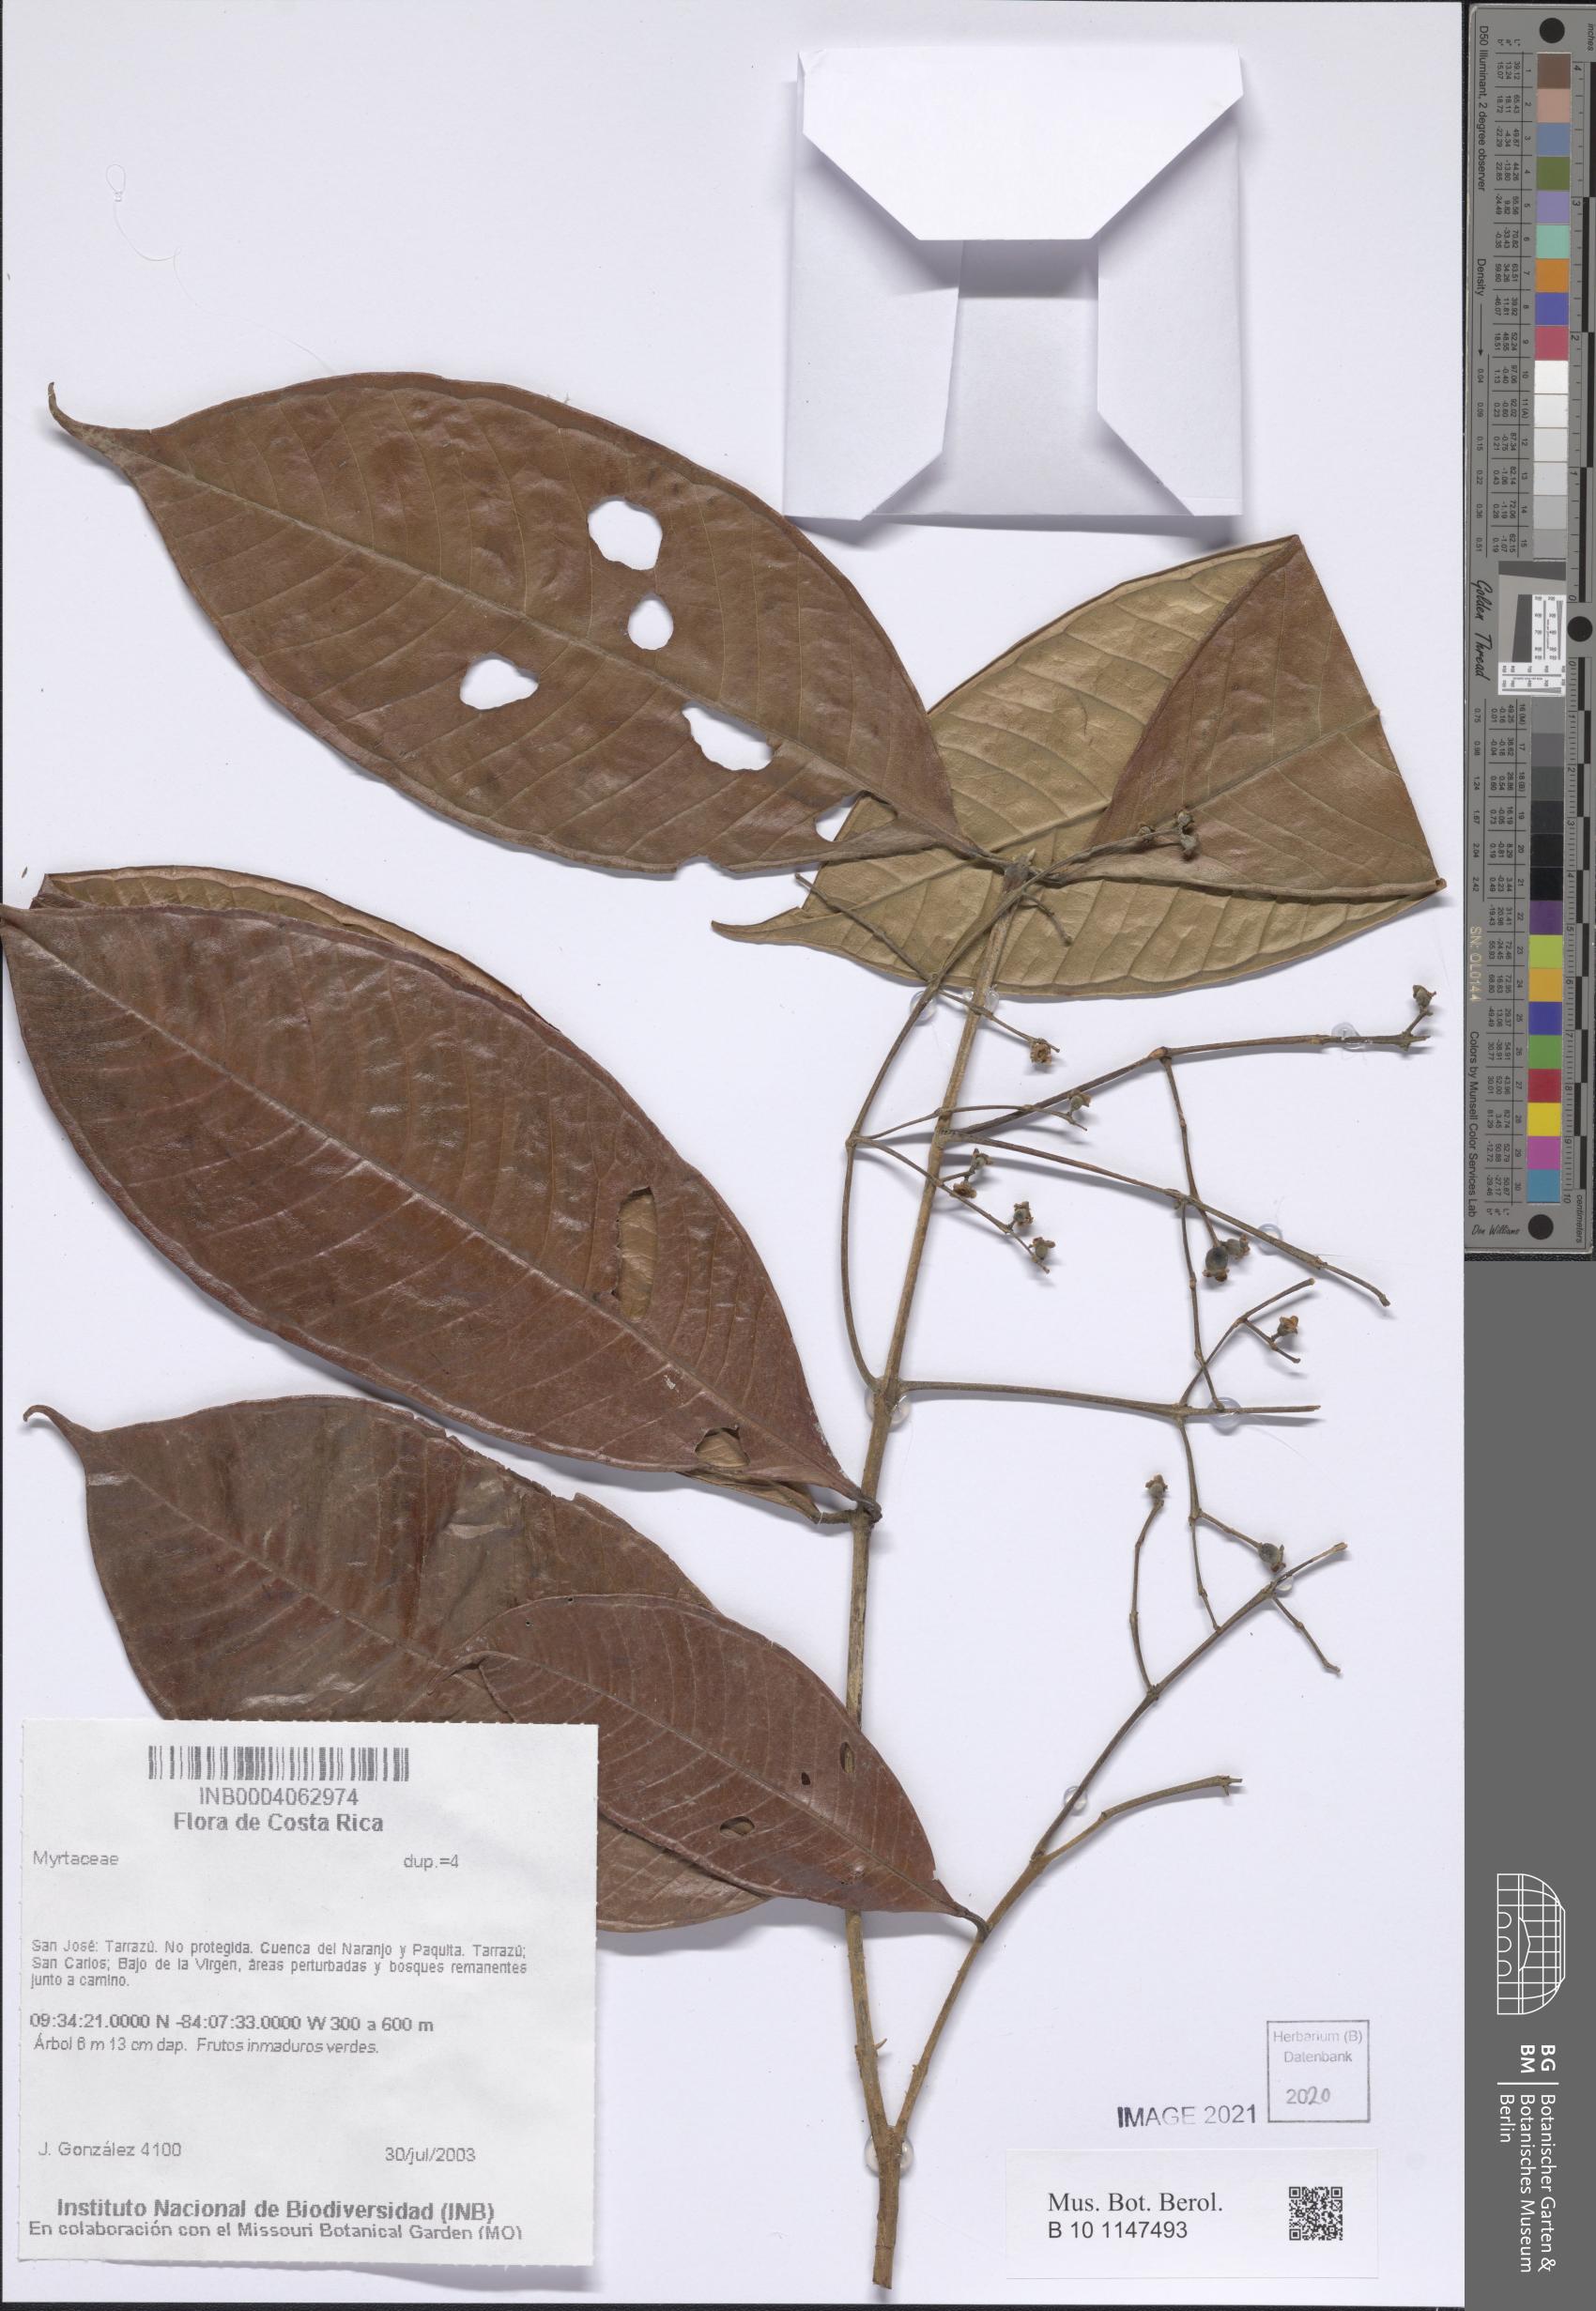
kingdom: Plantae
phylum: Tracheophyta
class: Magnoliopsida
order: Myrtales
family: Myrtaceae
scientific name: Myrtaceae
